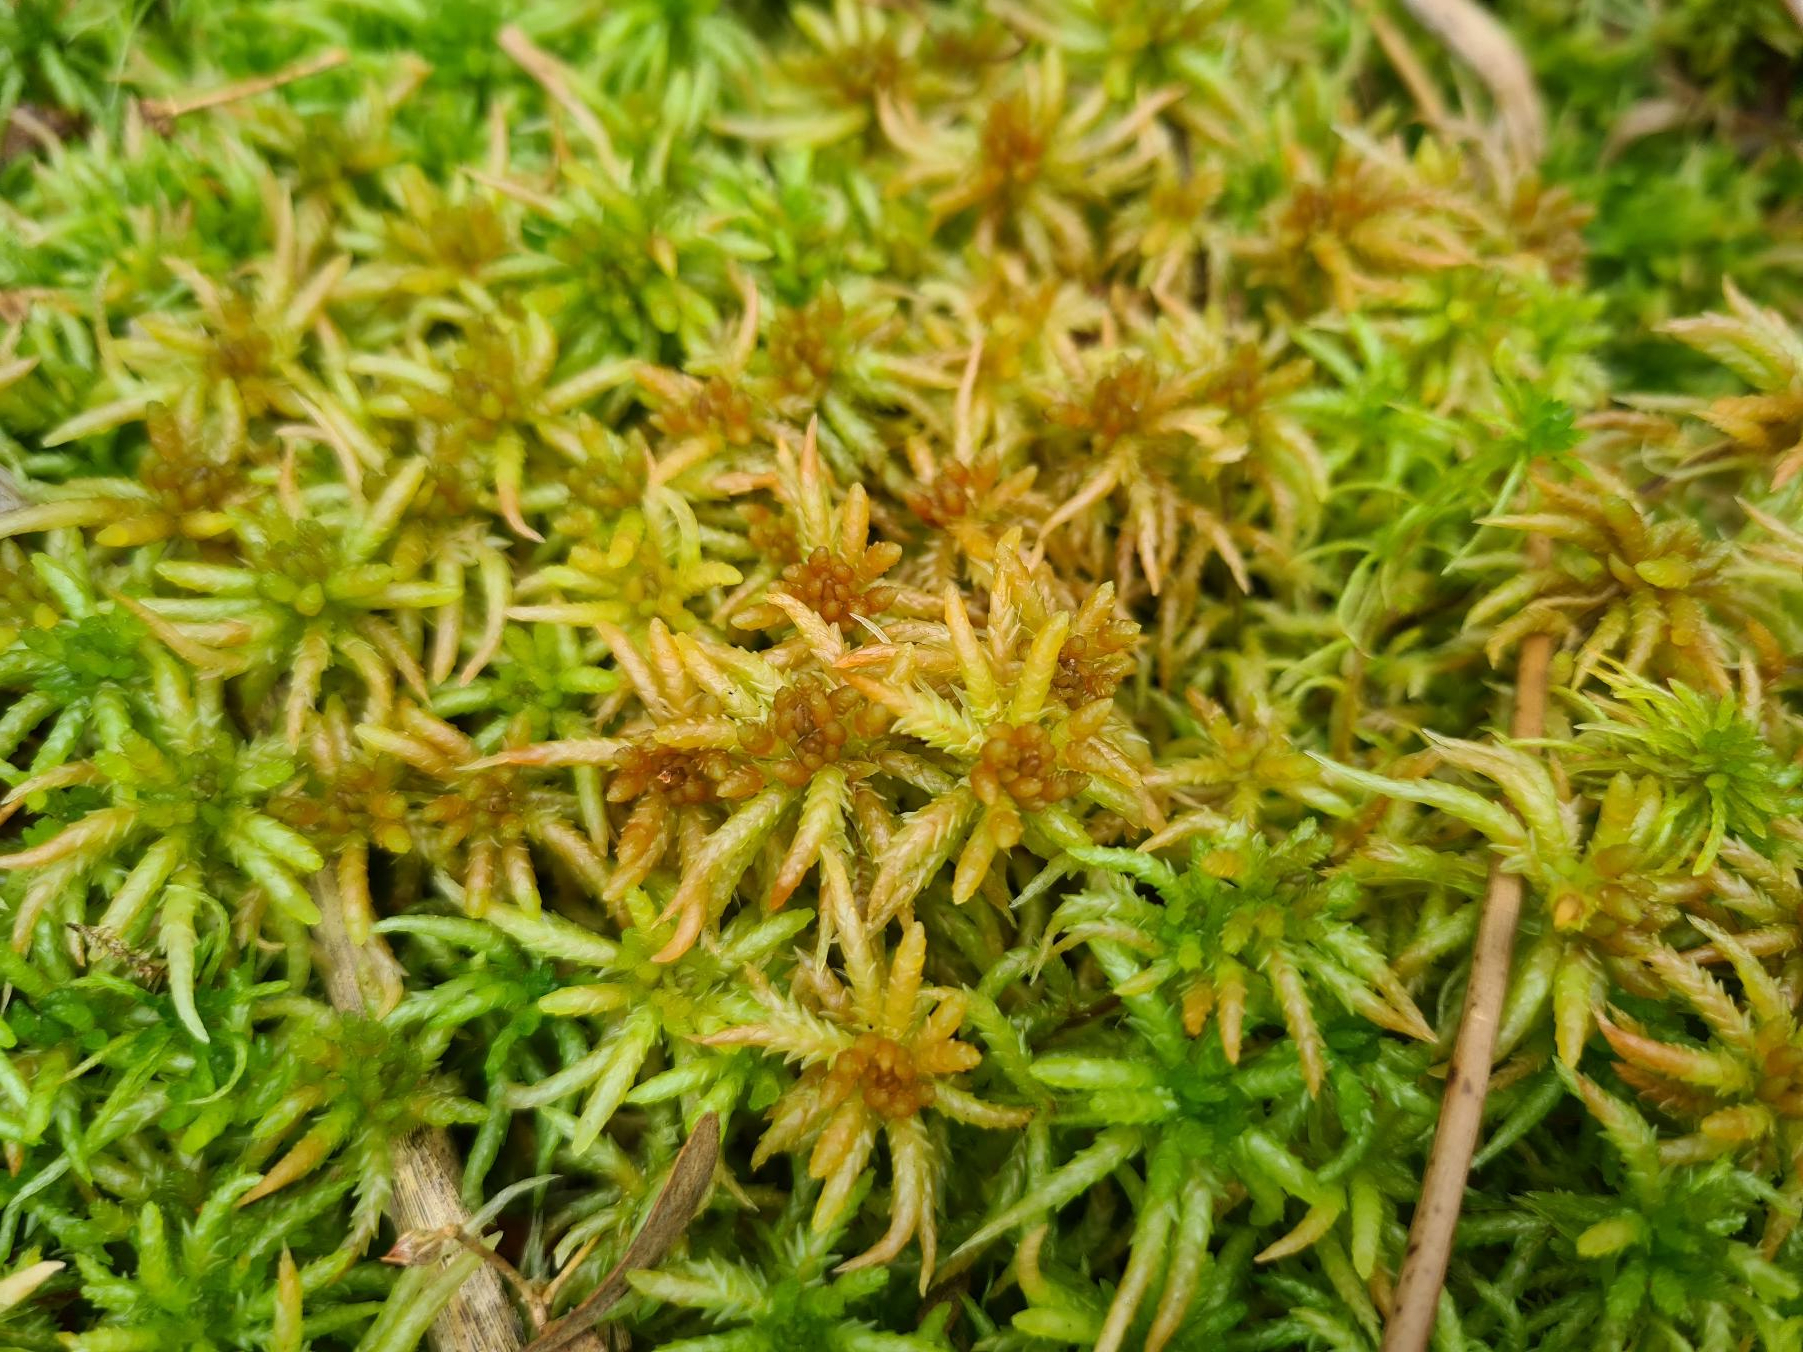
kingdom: Plantae
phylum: Bryophyta
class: Sphagnopsida
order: Sphagnales
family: Sphagnaceae
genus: Sphagnum
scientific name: Sphagnum palustre
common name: Almindelig tørvemos
